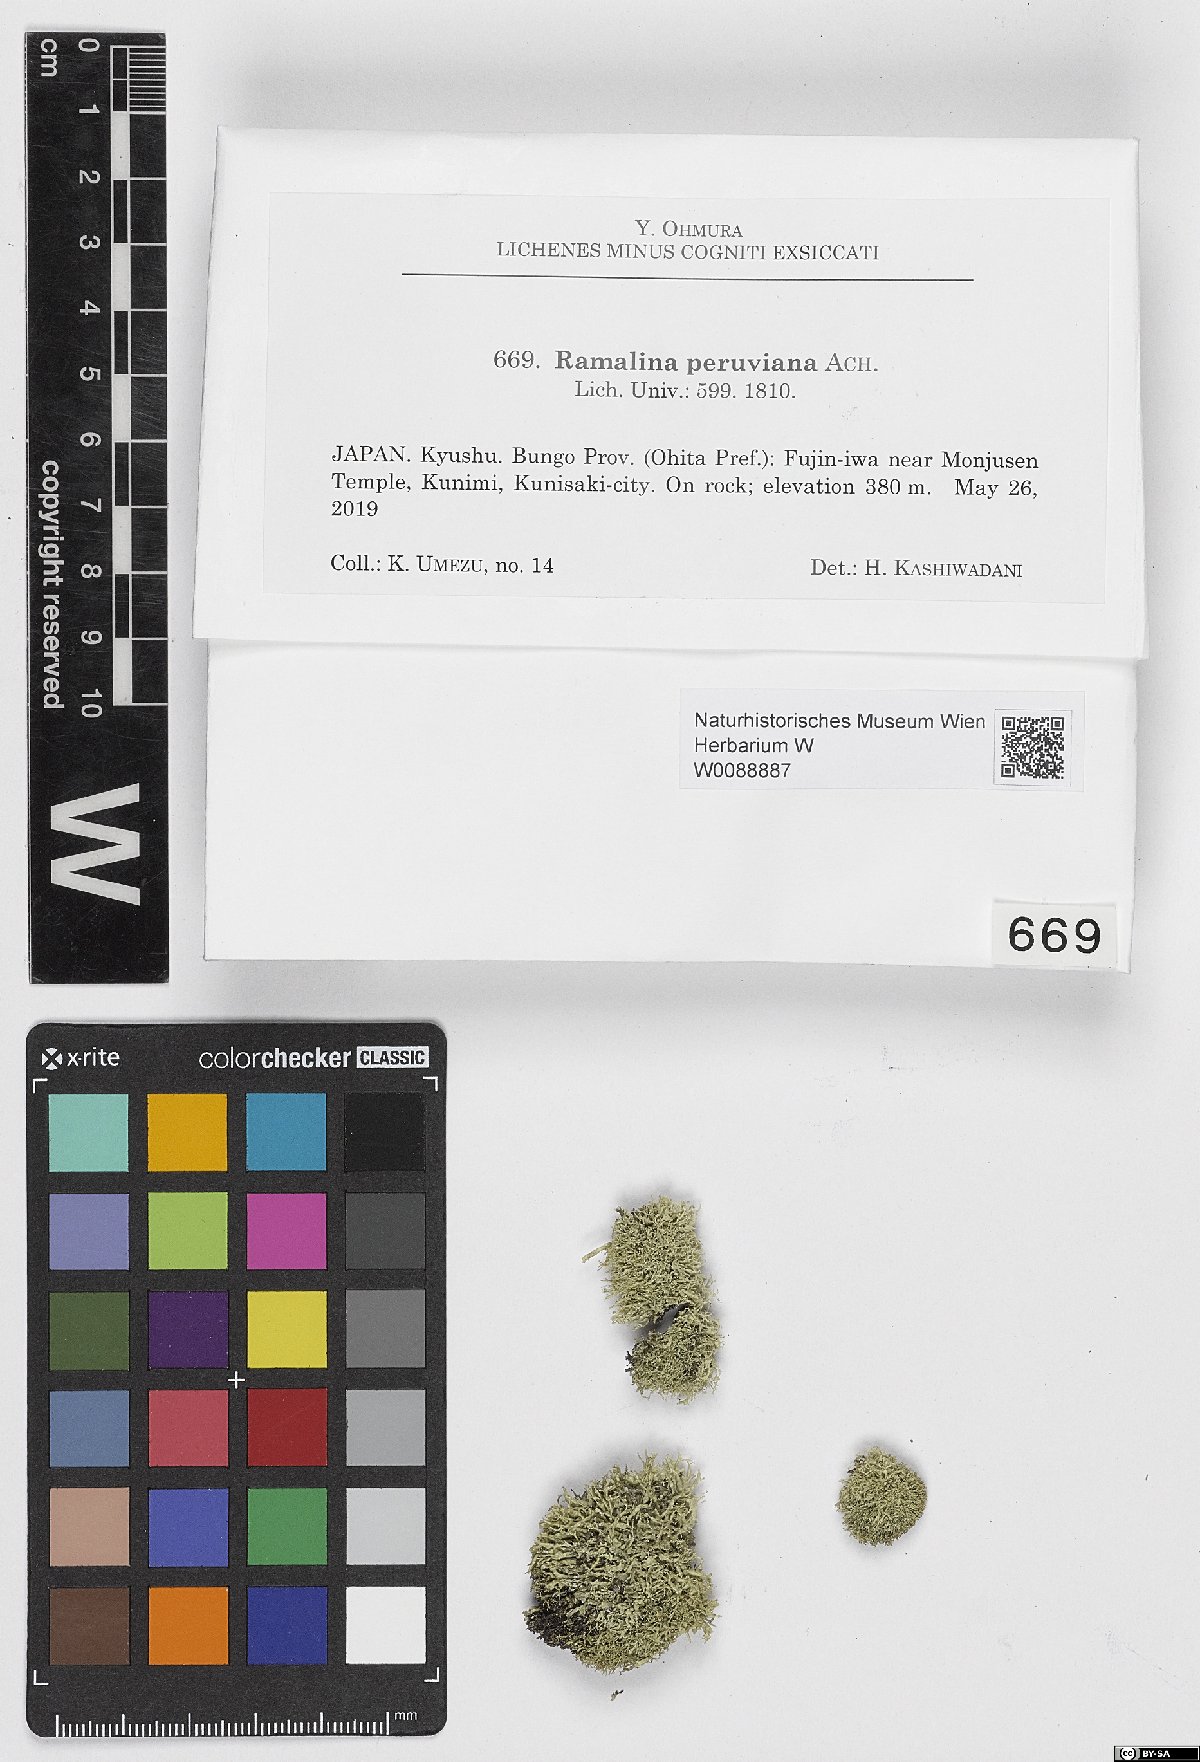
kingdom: Fungi
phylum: Ascomycota
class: Lecanoromycetes
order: Lecanorales
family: Ramalinaceae
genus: Ramalina
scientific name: Ramalina peruviana
